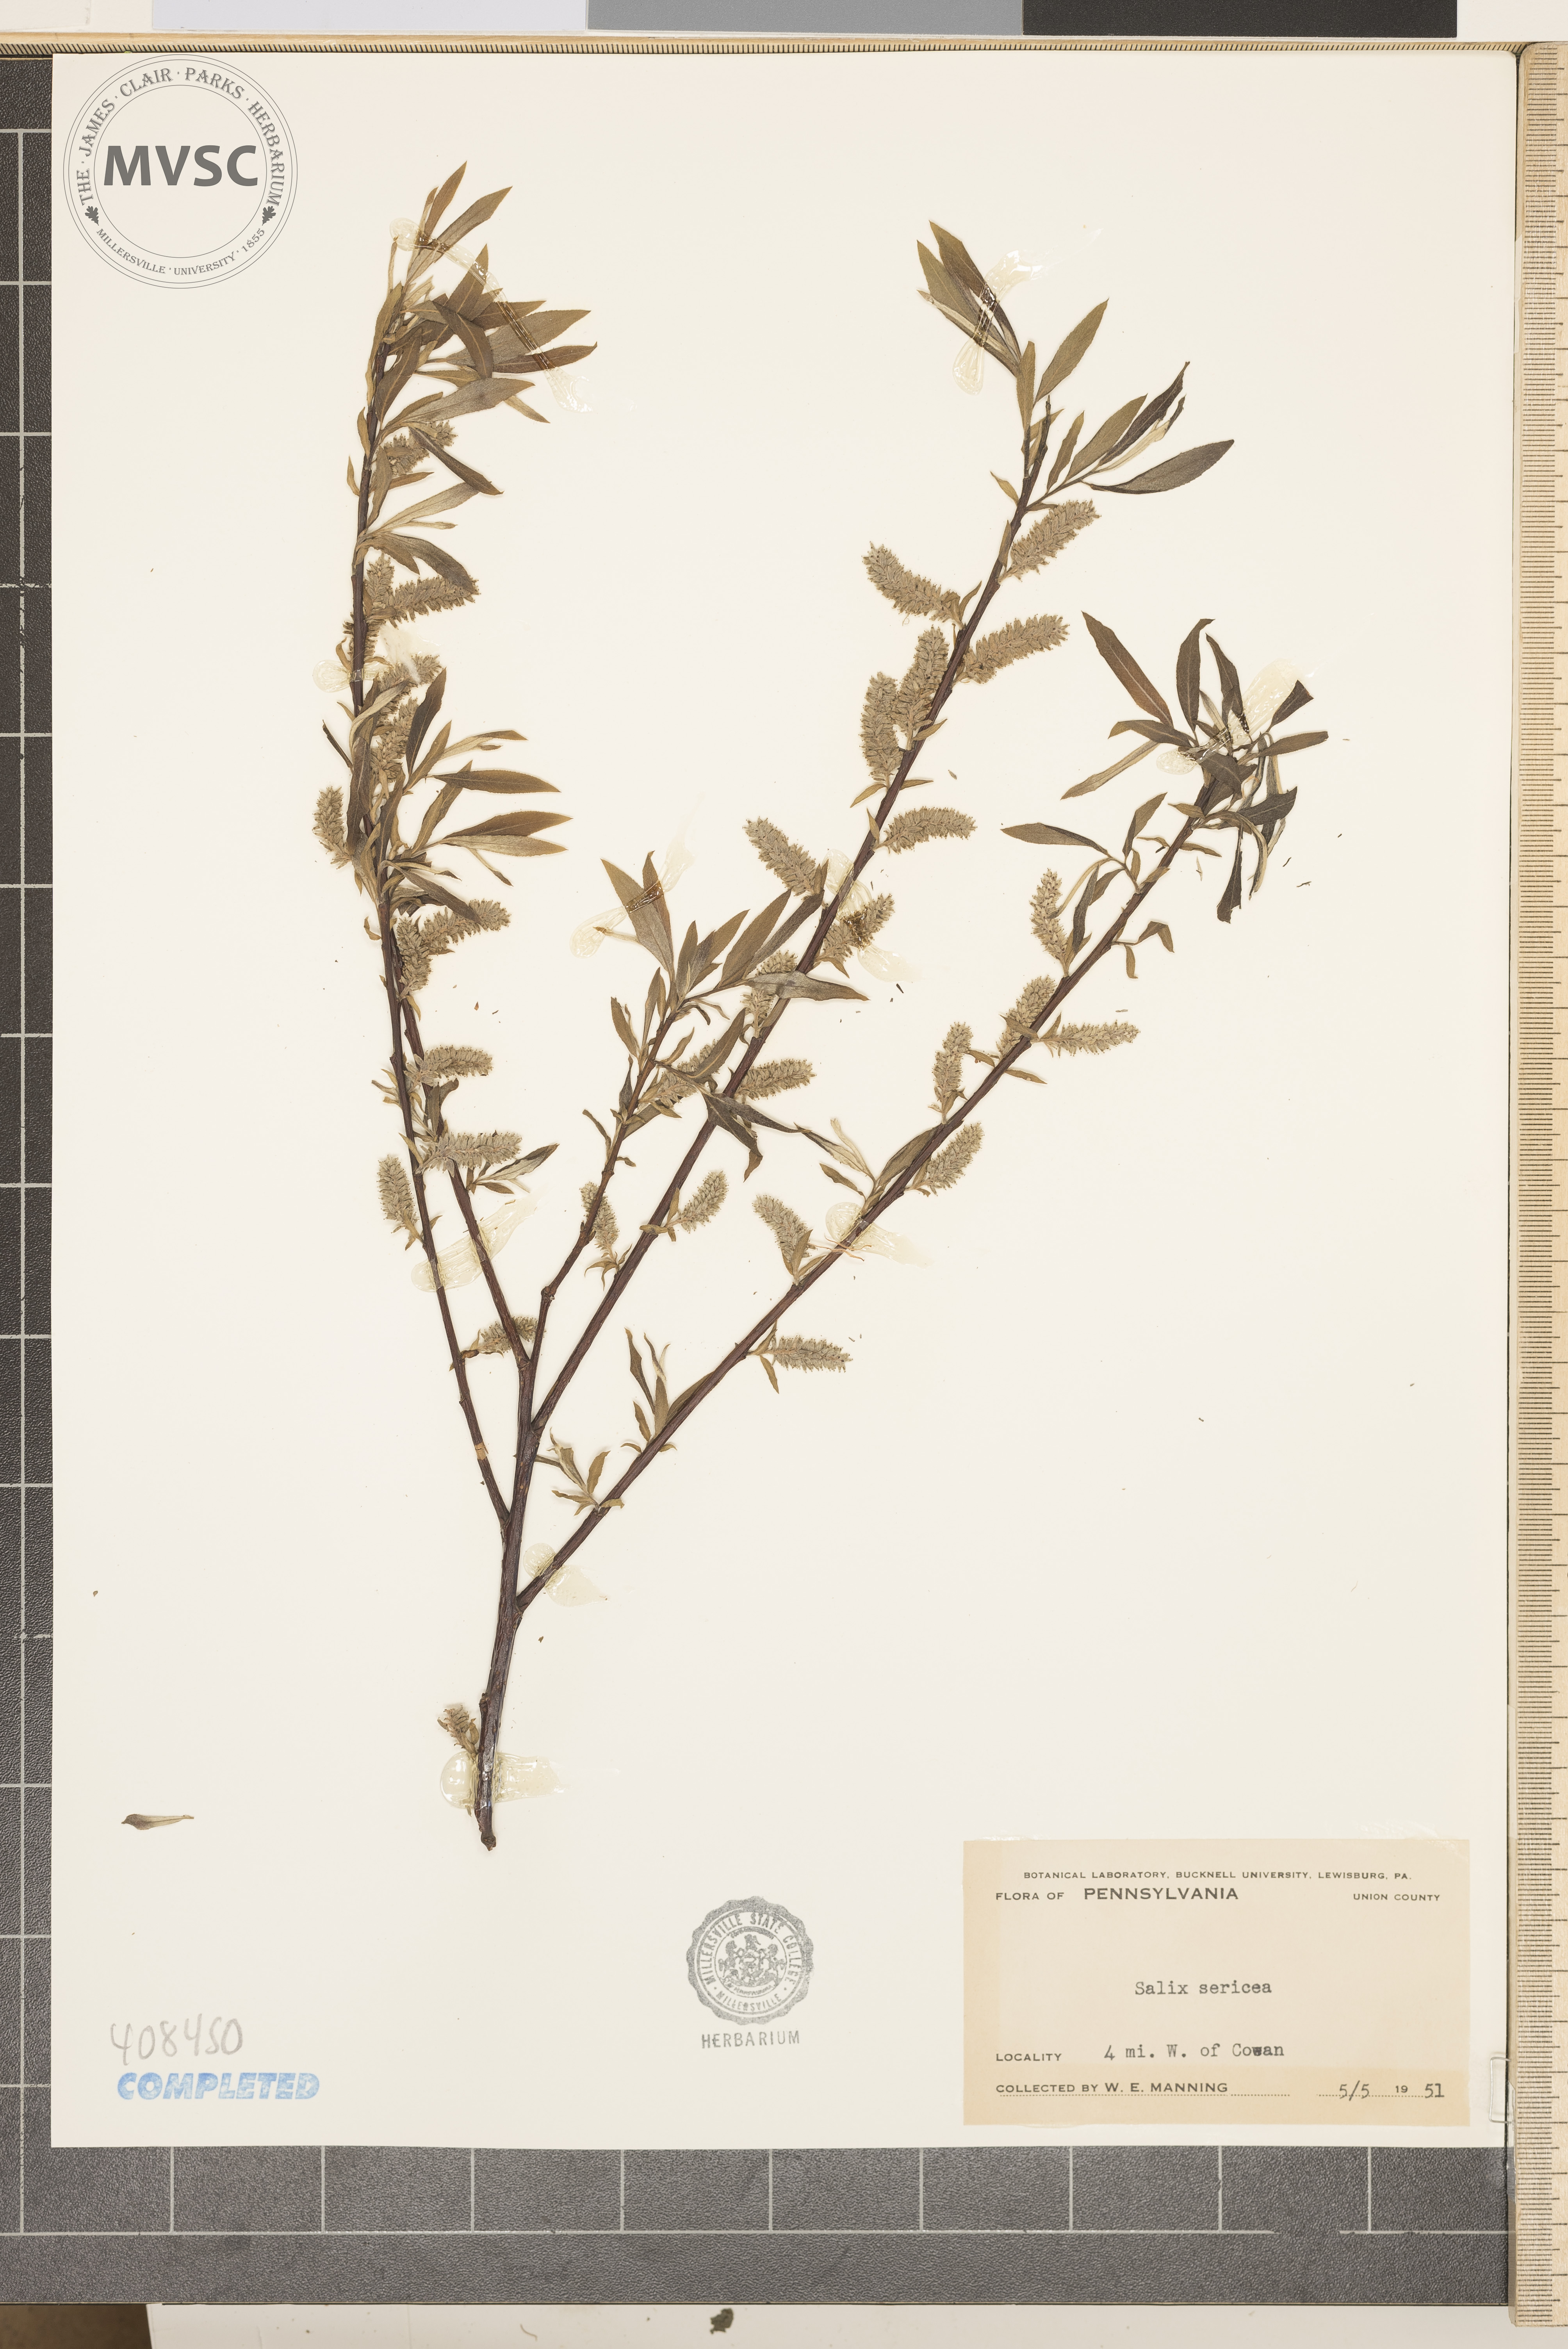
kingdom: Plantae
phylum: Tracheophyta
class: Magnoliopsida
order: Malpighiales
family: Salicaceae
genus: Salix
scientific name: Salix sericea
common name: Silky willow
